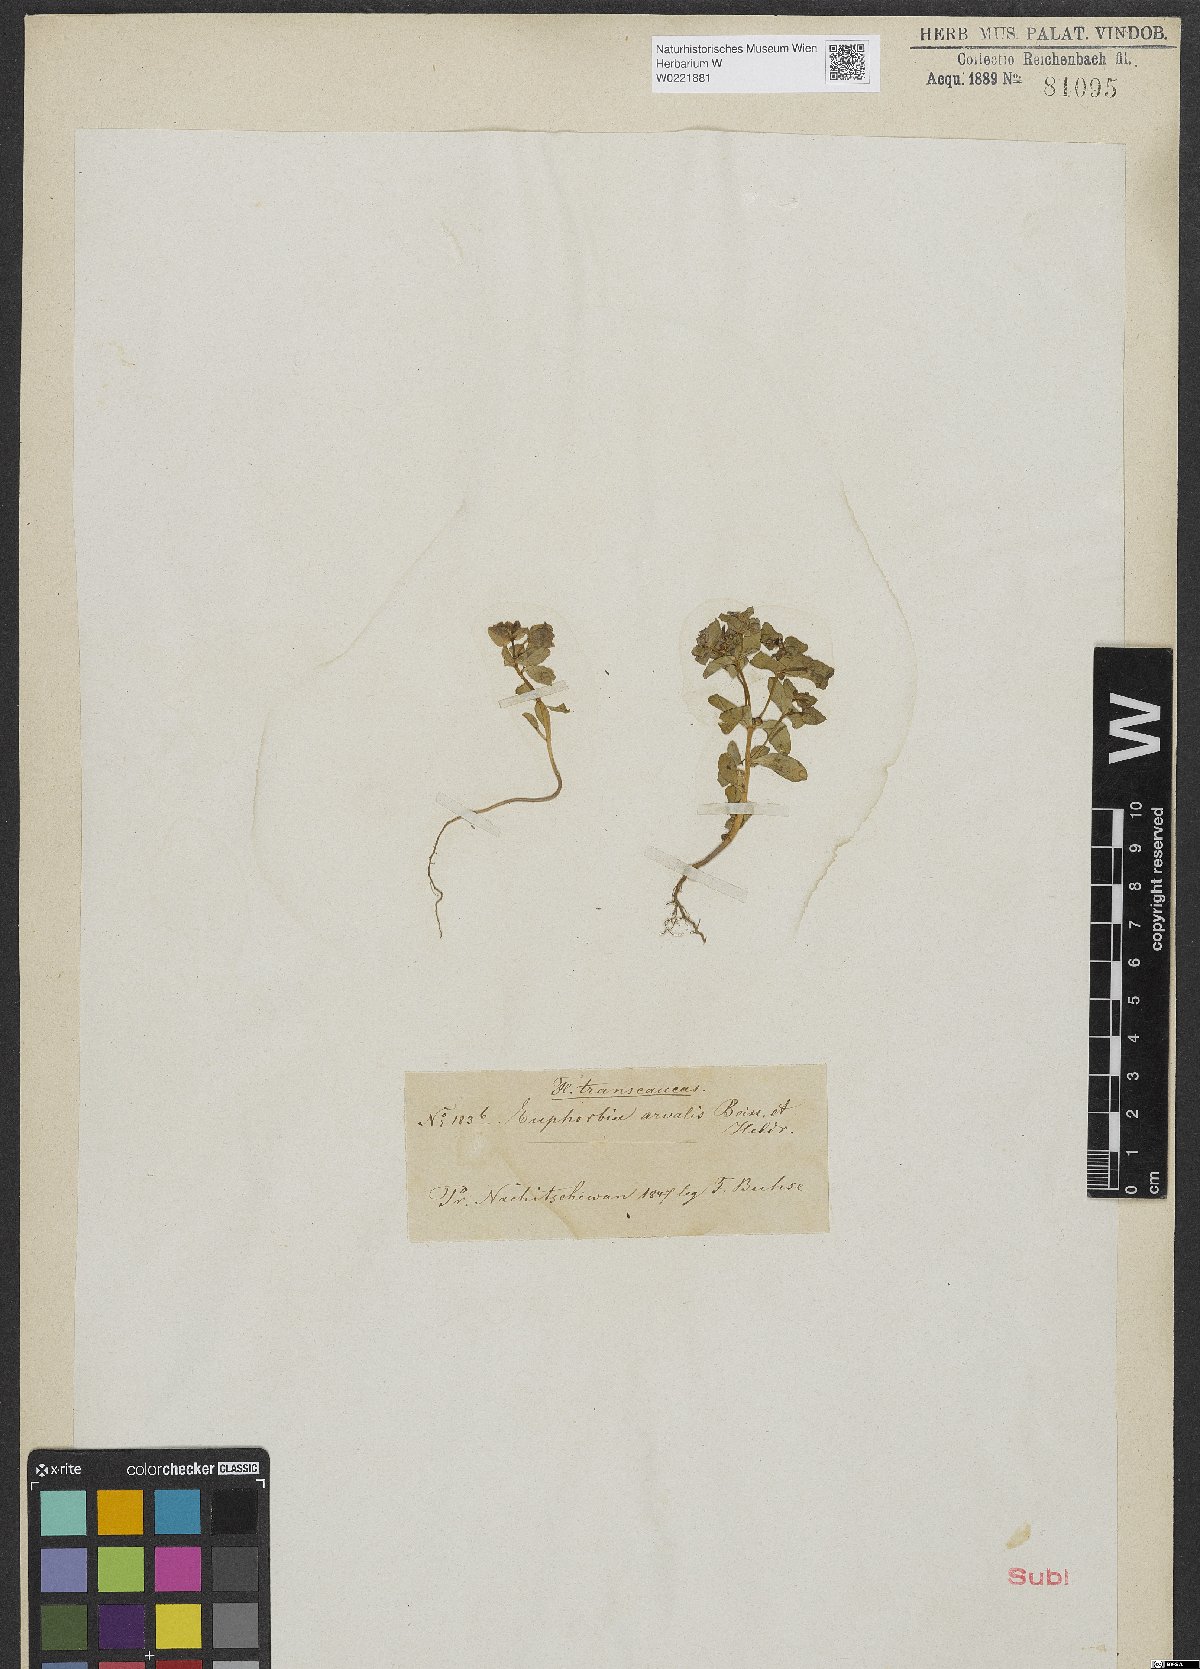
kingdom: Plantae
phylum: Tracheophyta
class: Magnoliopsida
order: Malpighiales
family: Euphorbiaceae
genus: Euphorbia
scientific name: Euphorbia arvalis
